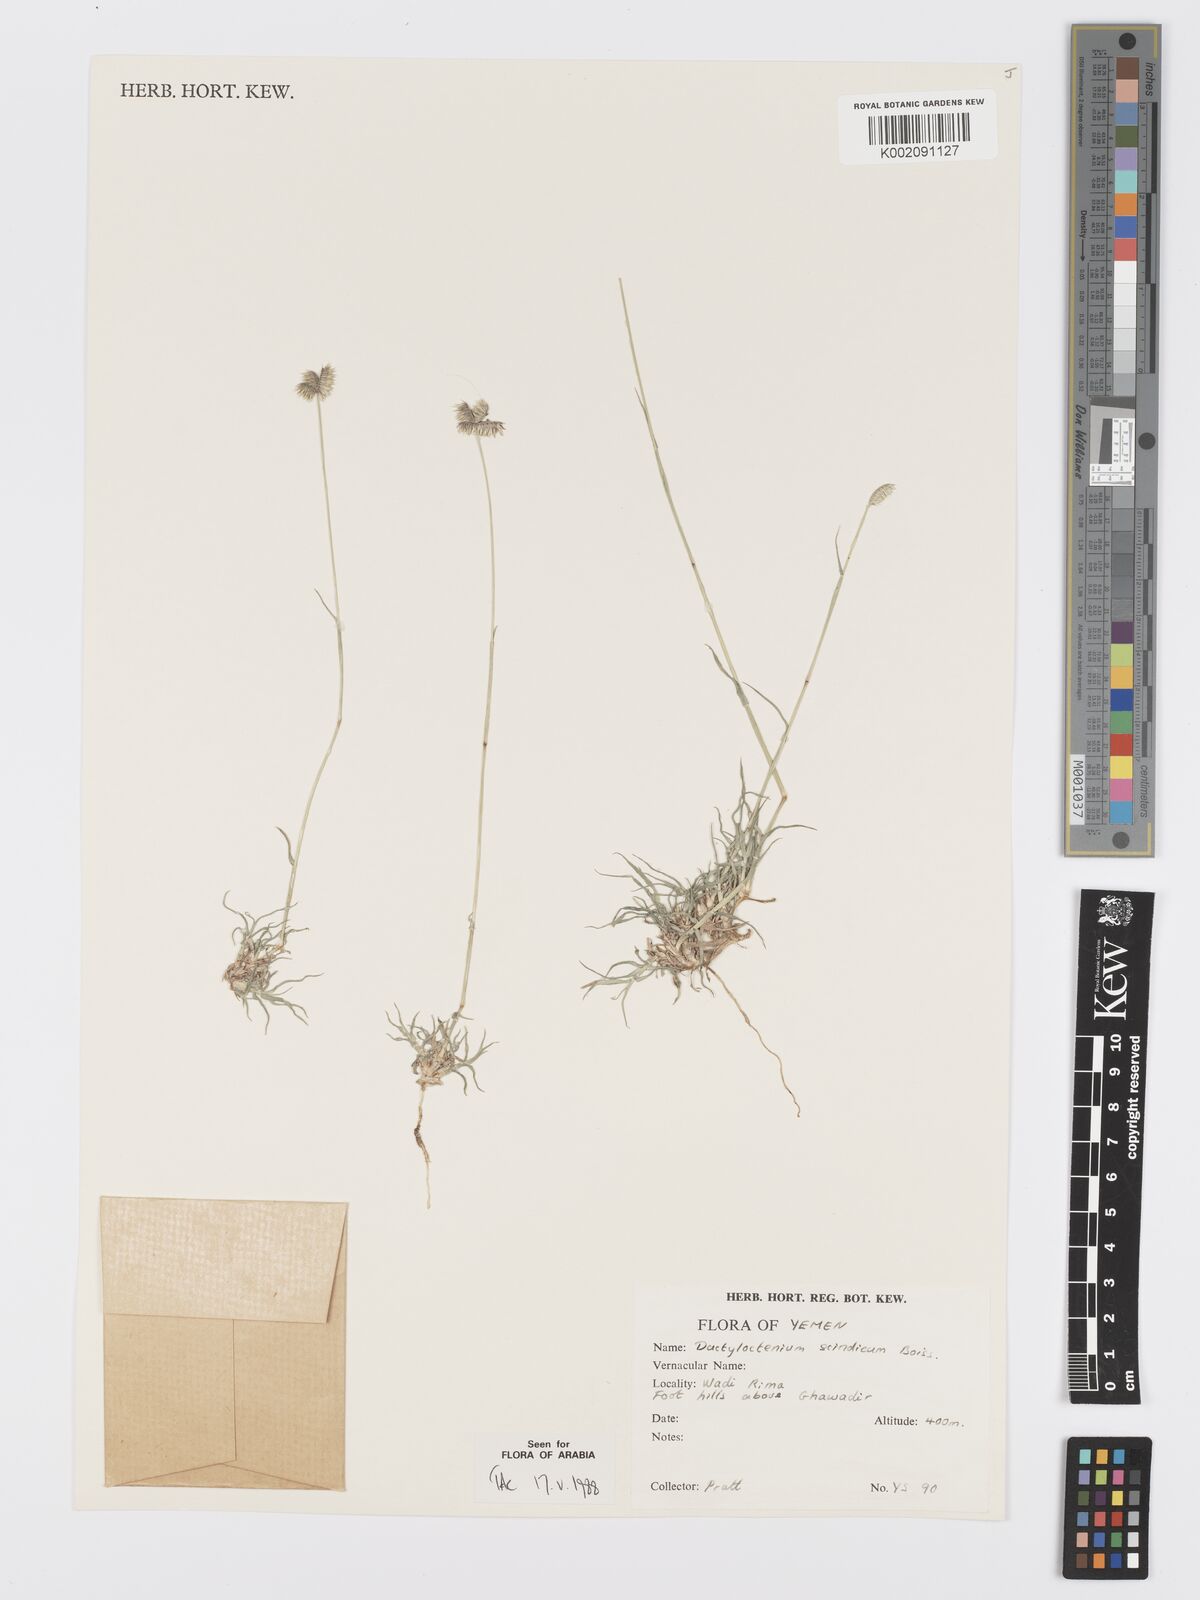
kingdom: Plantae
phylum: Tracheophyta
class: Liliopsida
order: Poales
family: Poaceae
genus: Dactyloctenium
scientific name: Dactyloctenium scindicum
